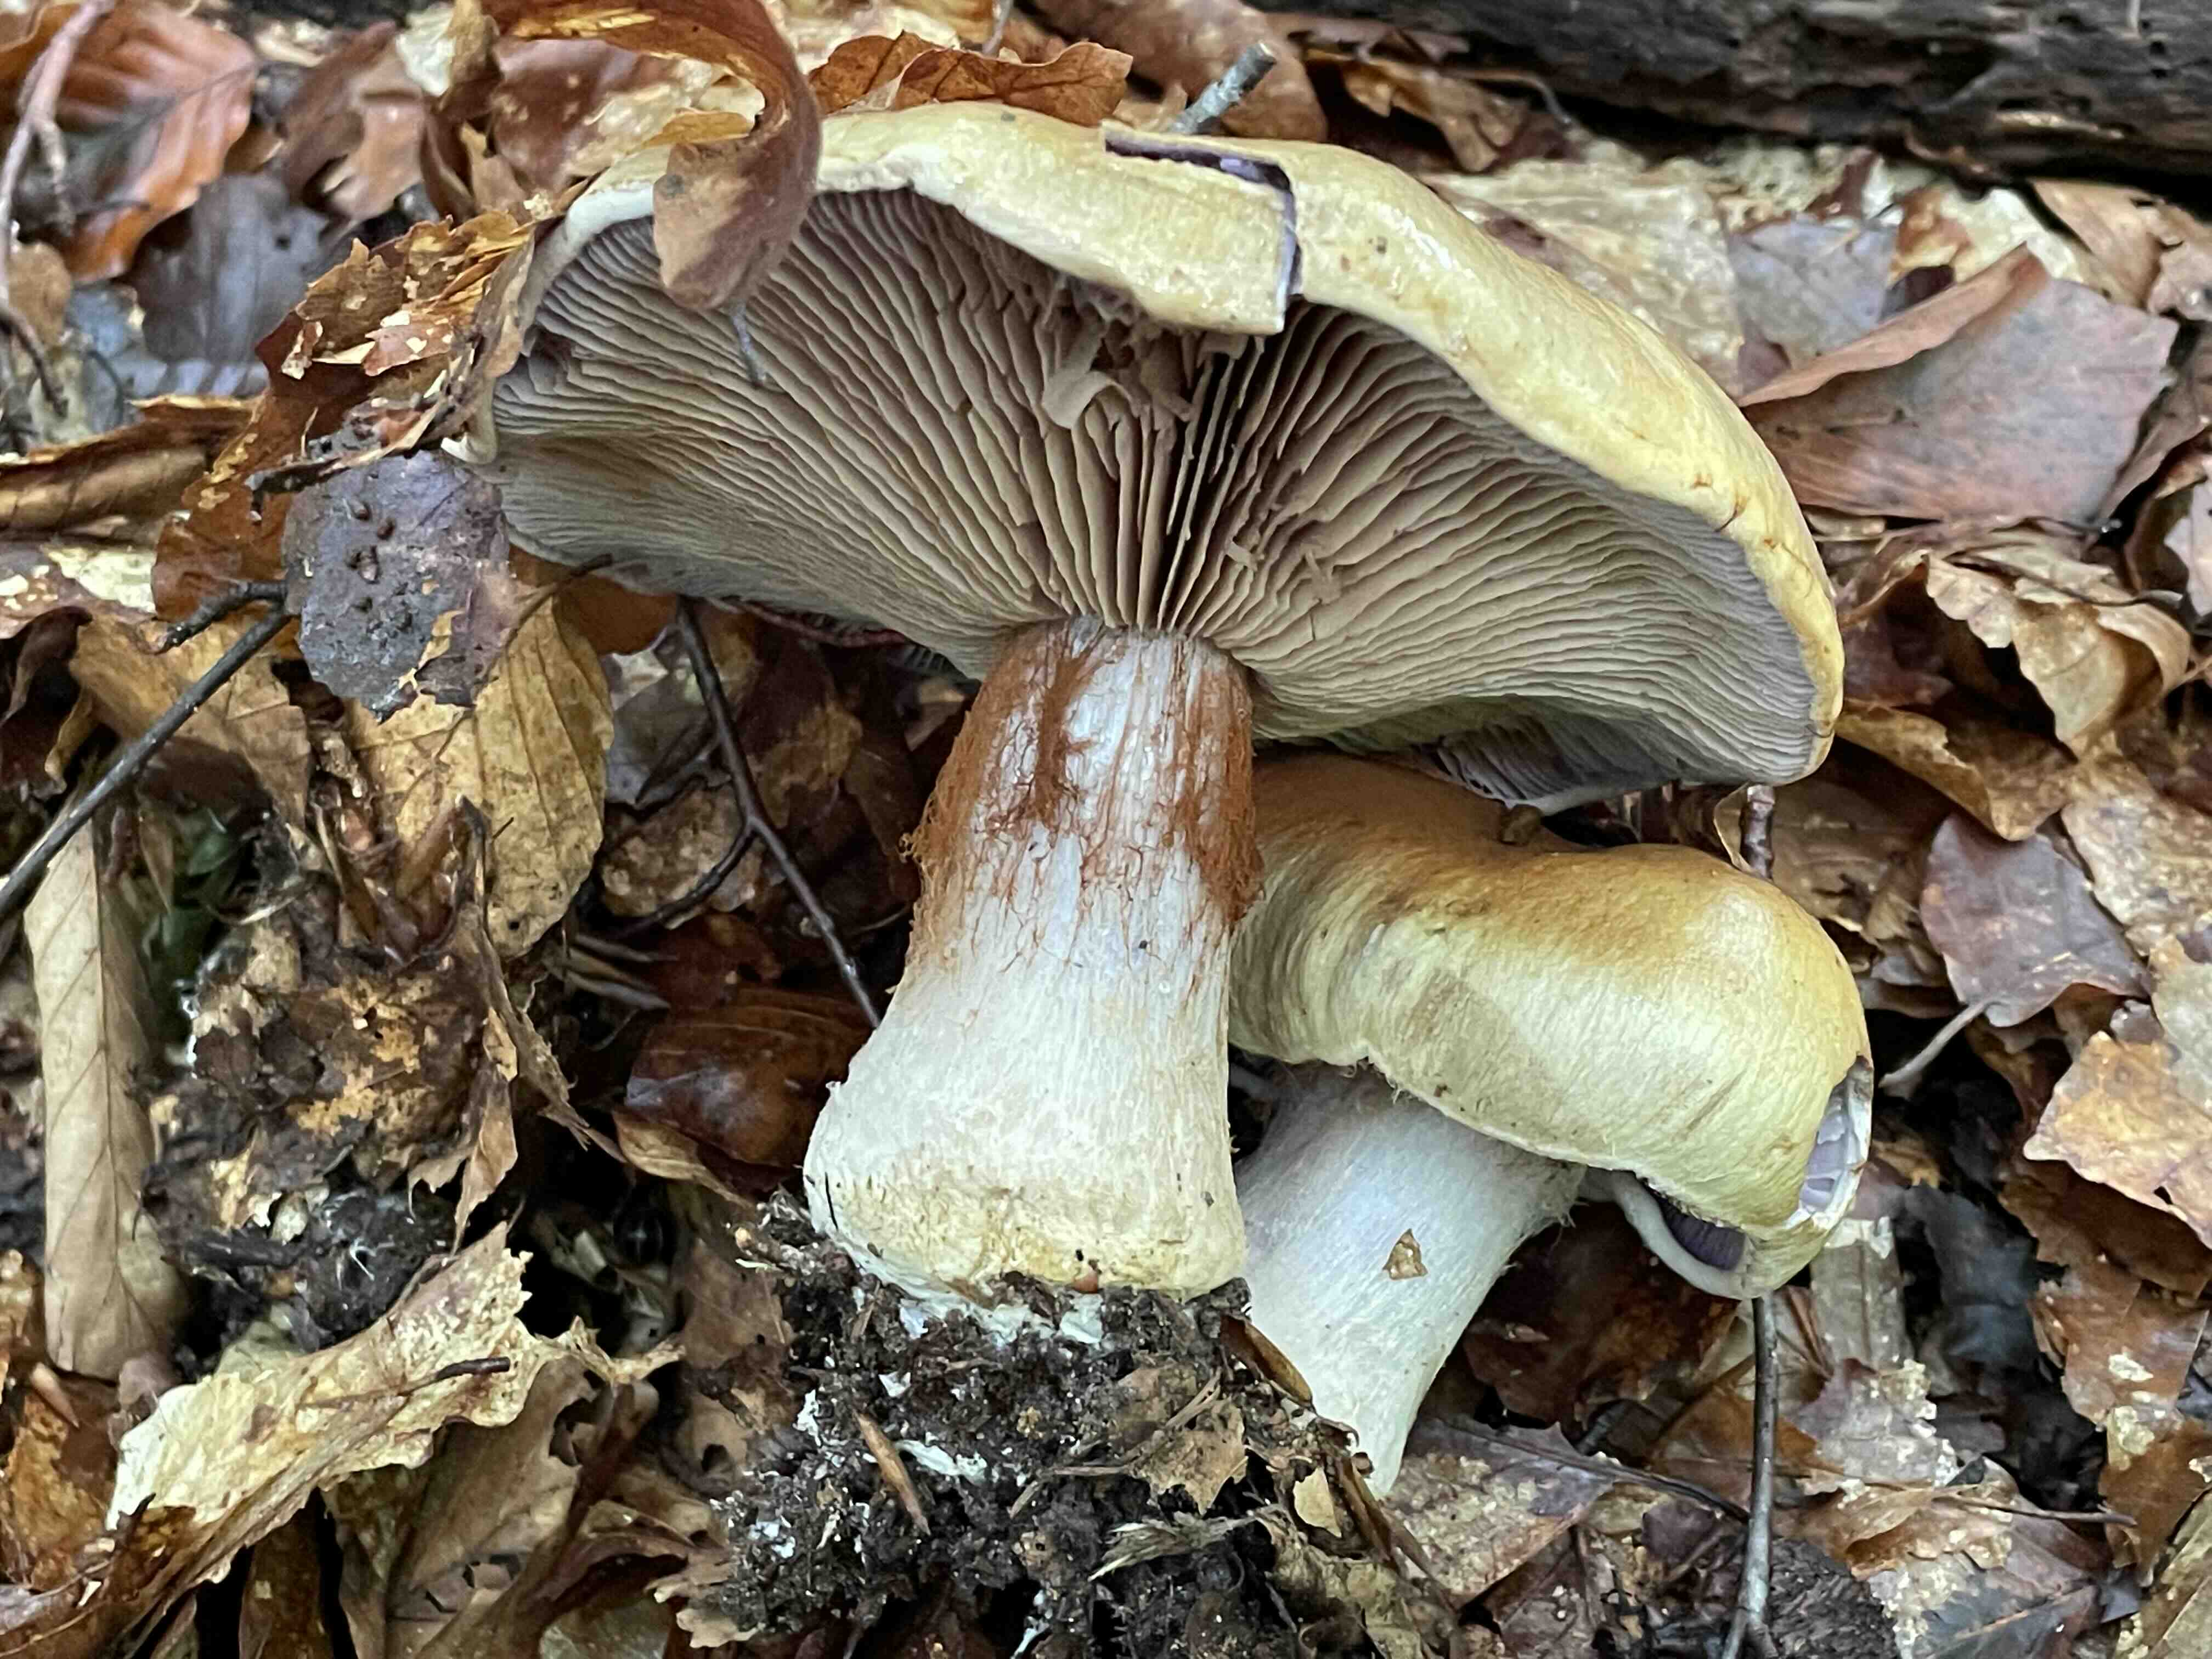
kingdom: Fungi
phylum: Basidiomycota
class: Agaricomycetes
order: Agaricales
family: Cortinariaceae
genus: Cortinarius
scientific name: Cortinarius anserinus
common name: bøge-slørhat
